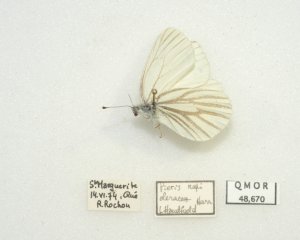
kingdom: Animalia
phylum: Arthropoda
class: Insecta
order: Lepidoptera
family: Pieridae
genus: Pieris
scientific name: Pieris oleracea
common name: Mustard White
